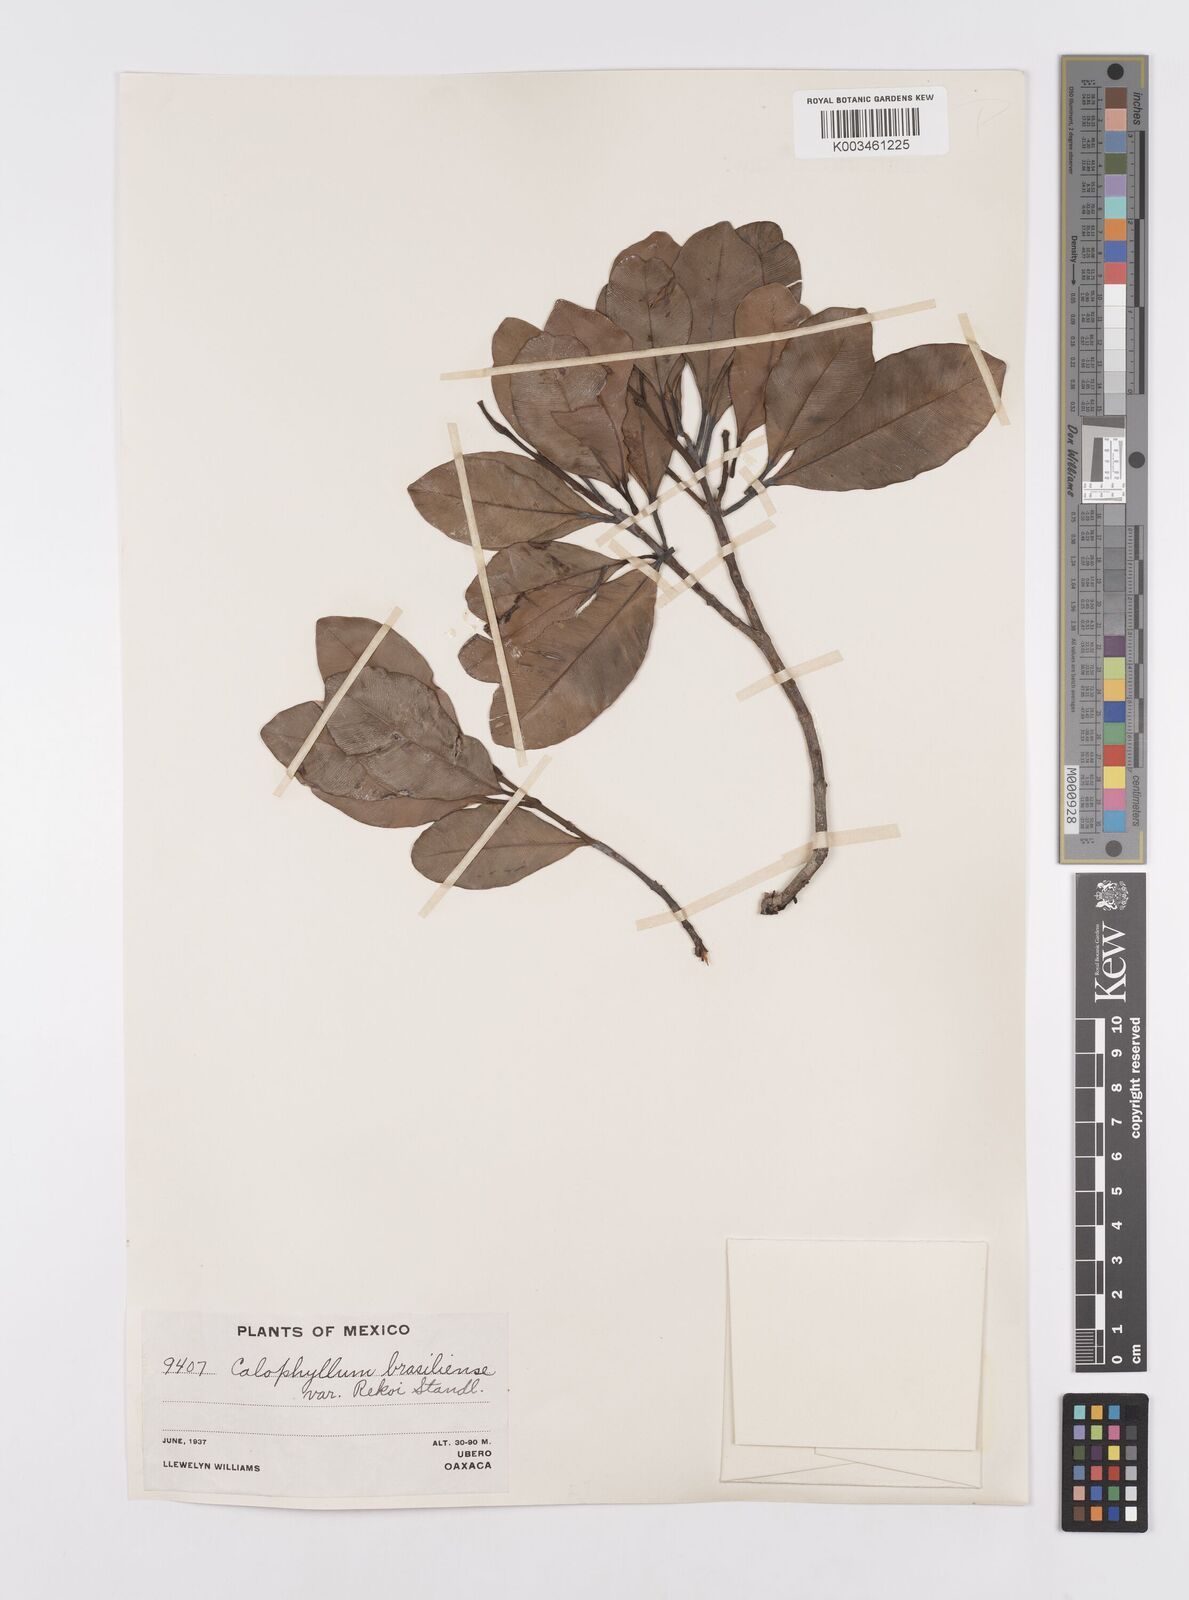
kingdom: Plantae
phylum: Tracheophyta
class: Magnoliopsida
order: Malpighiales
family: Calophyllaceae
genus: Calophyllum
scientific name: Calophyllum brasiliense
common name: Santa maria
